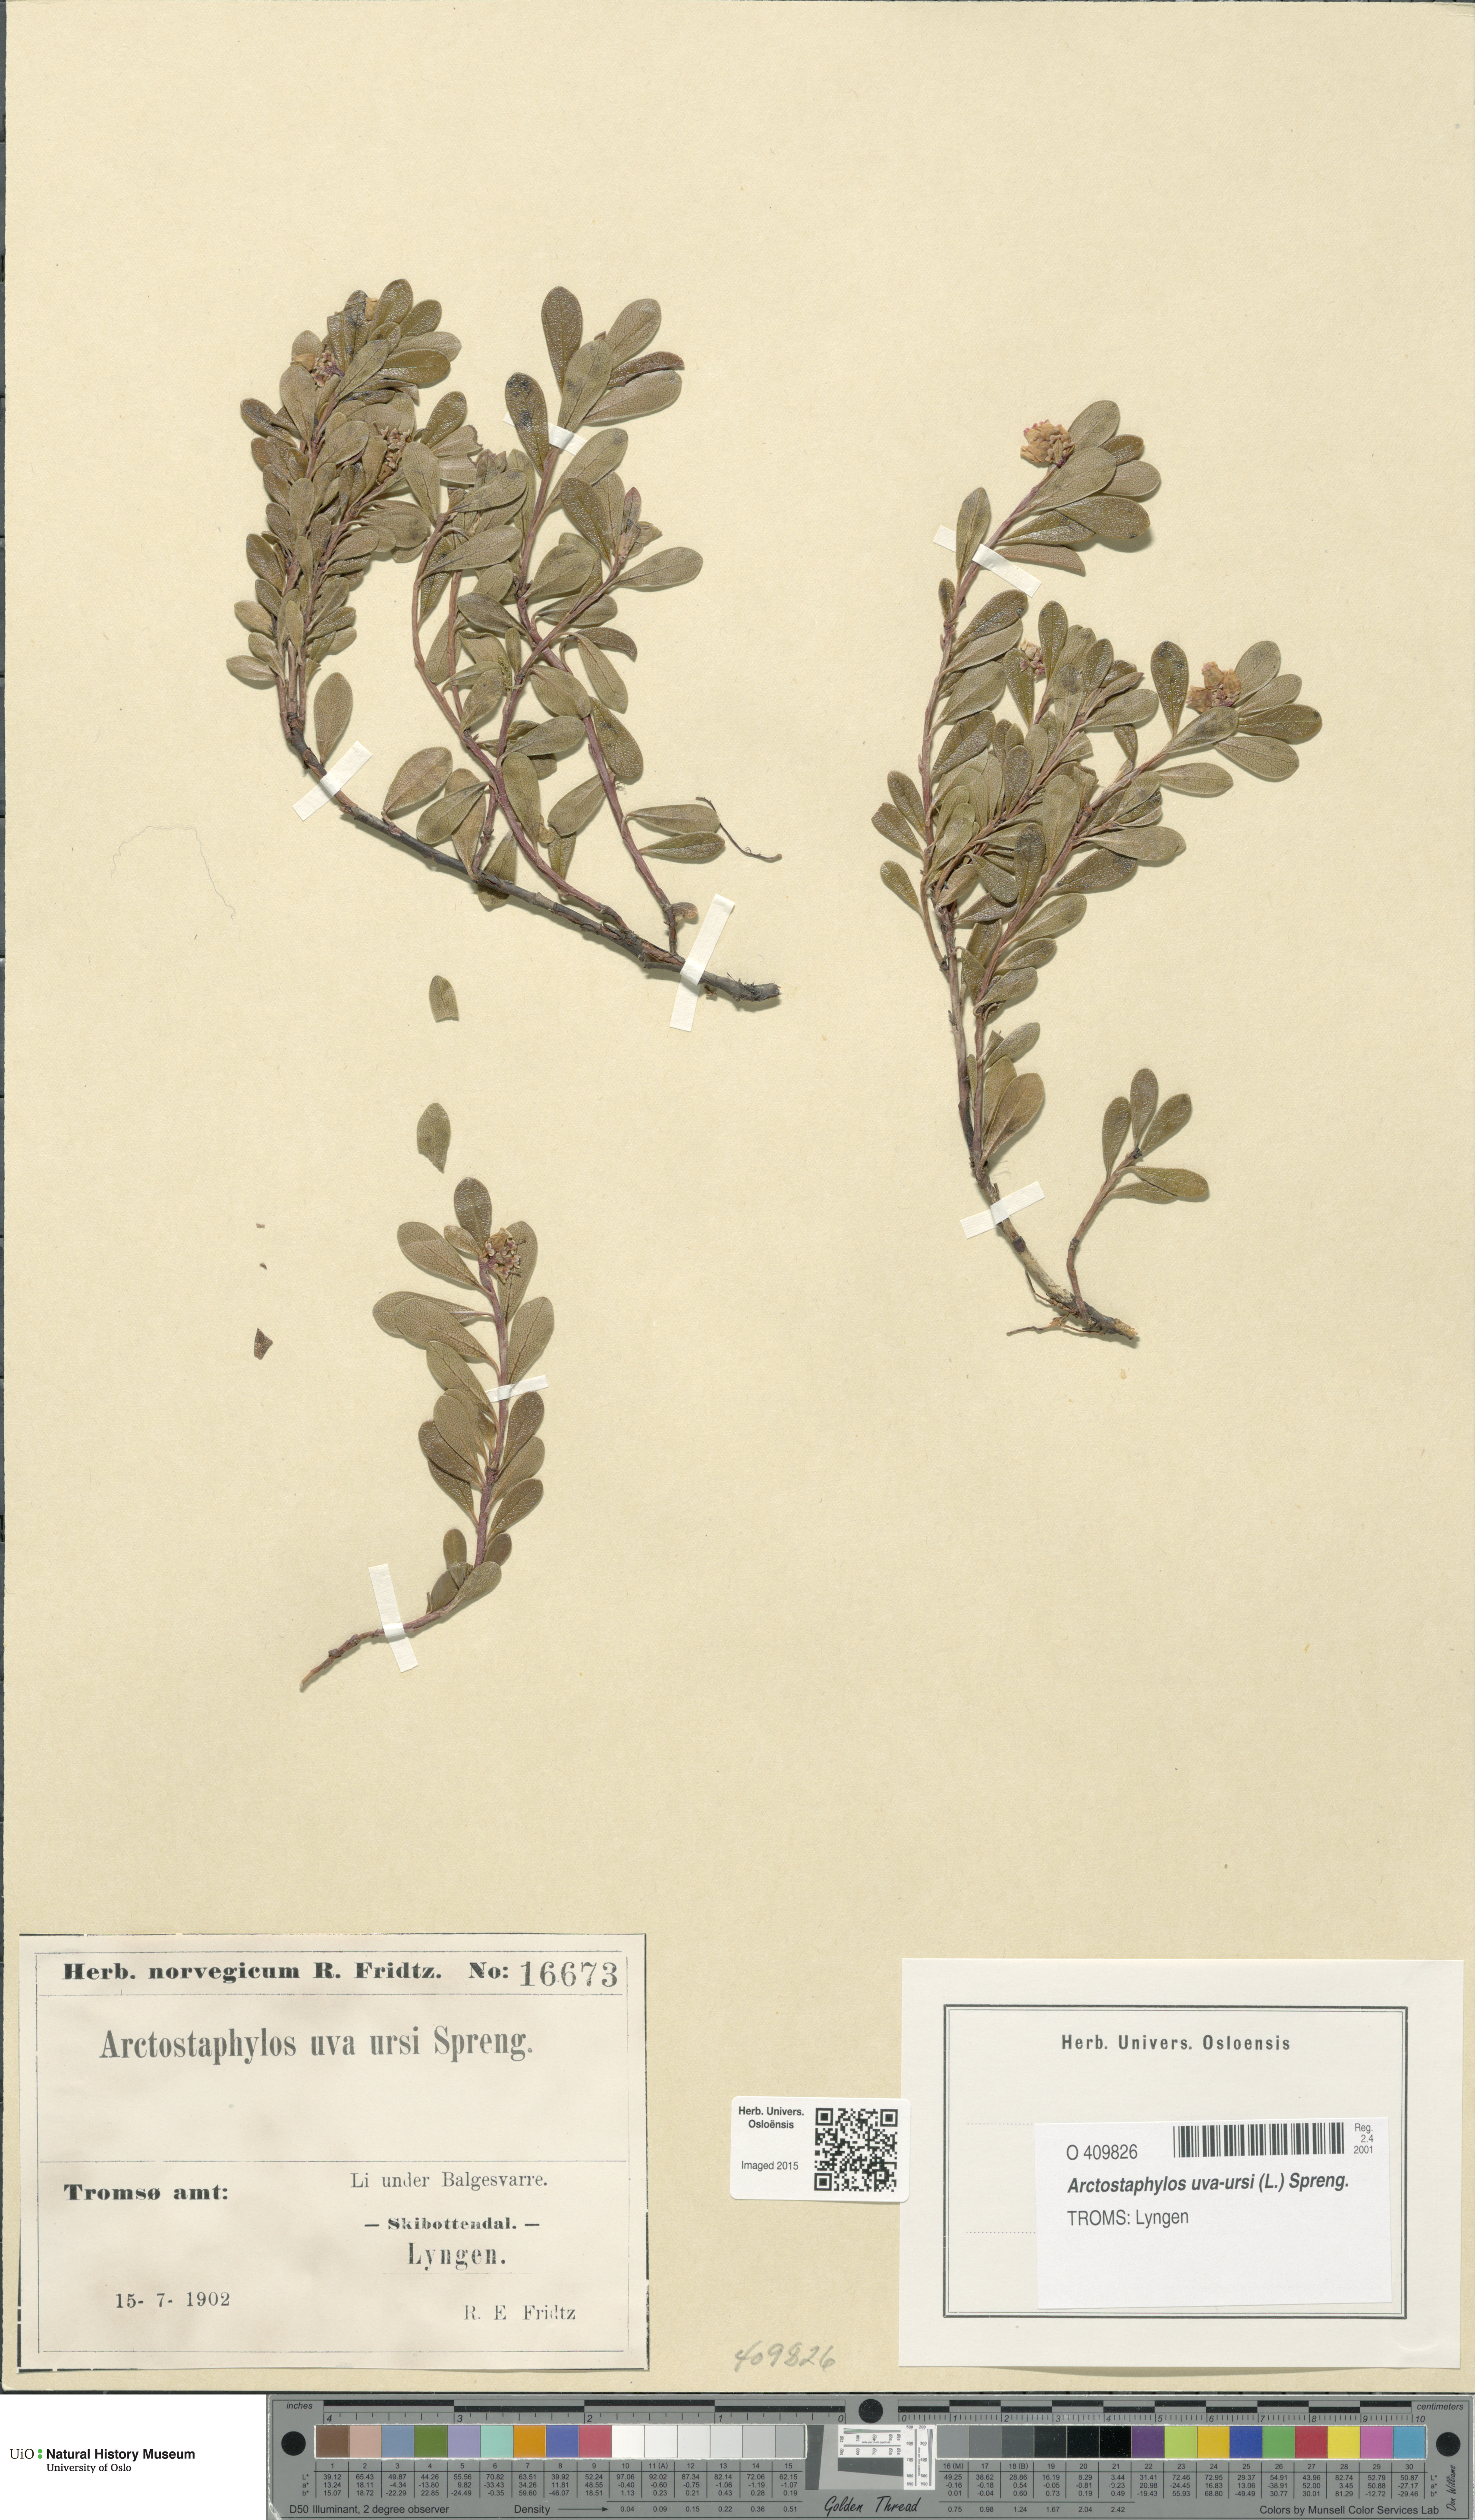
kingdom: Plantae
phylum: Tracheophyta
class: Magnoliopsida
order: Ericales
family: Ericaceae
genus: Arctostaphylos
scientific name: Arctostaphylos uva-ursi
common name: Bearberry
